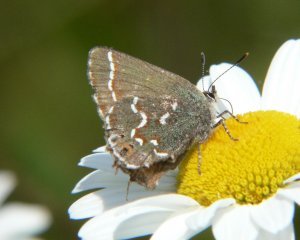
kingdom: Animalia
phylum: Arthropoda
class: Insecta
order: Lepidoptera
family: Lycaenidae
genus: Mitoura
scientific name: Mitoura gryneus
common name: Juniper Hairstreak
